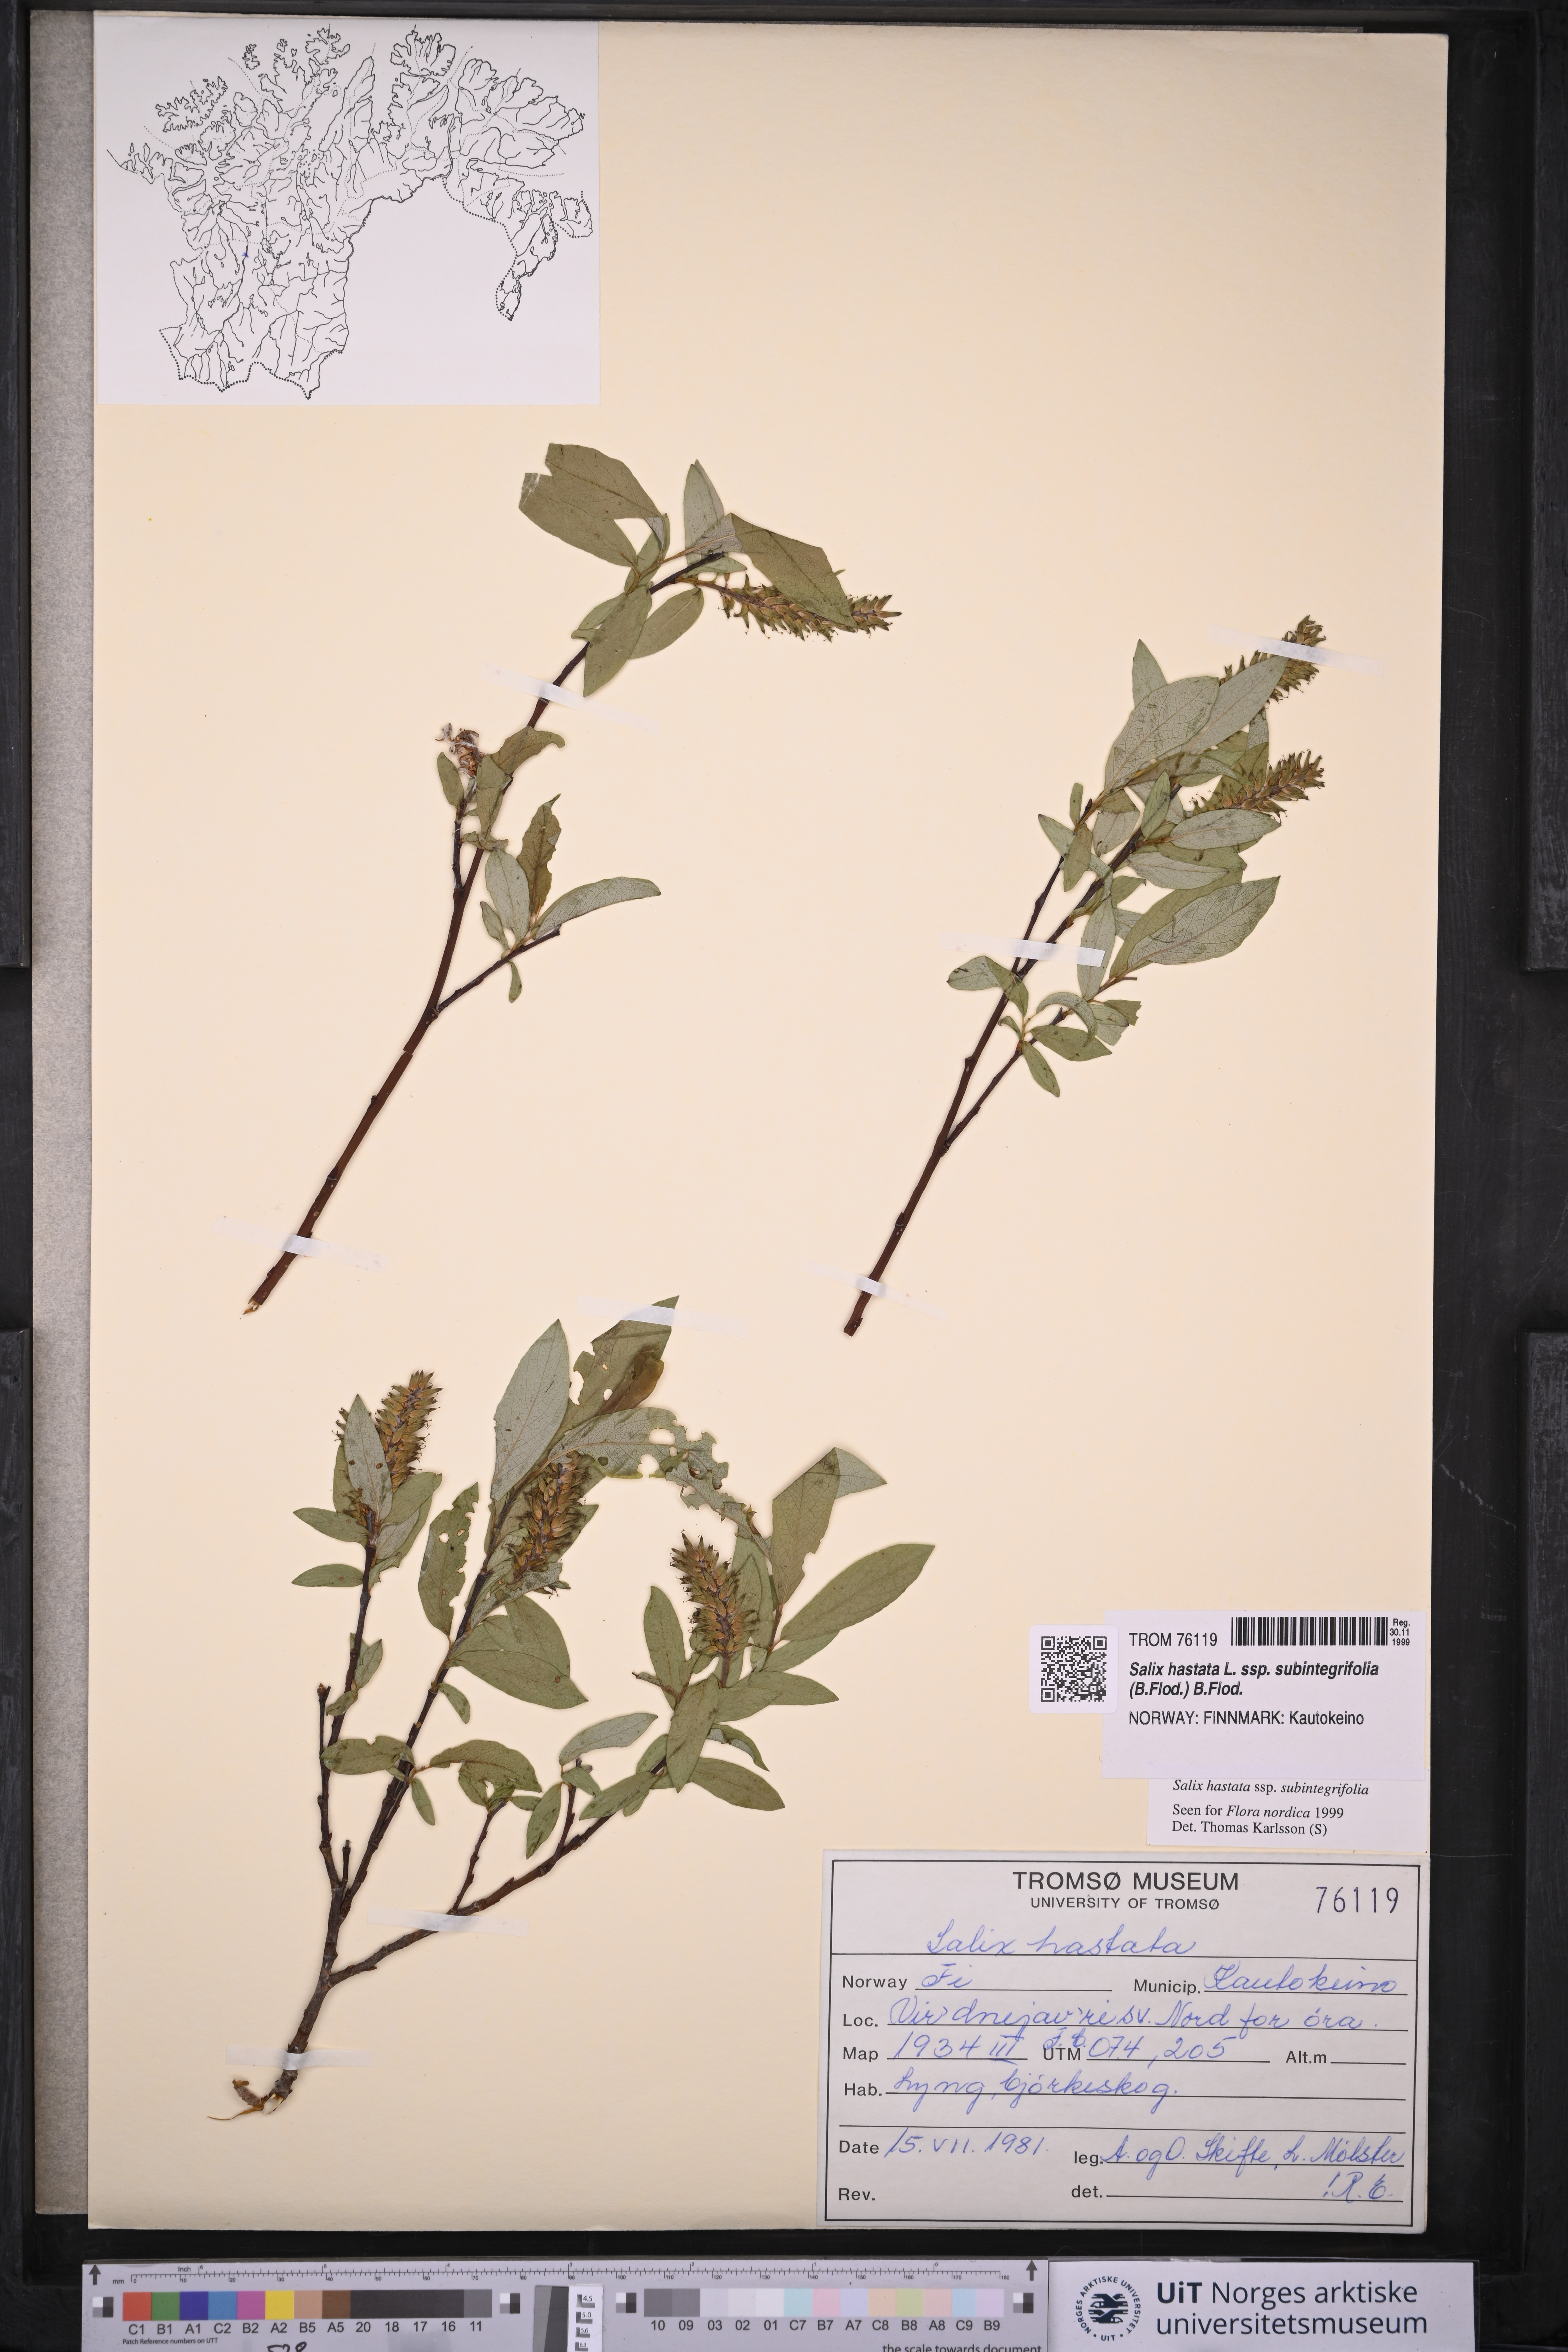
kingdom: Plantae
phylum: Tracheophyta
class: Magnoliopsida
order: Malpighiales
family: Salicaceae
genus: Salix
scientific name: Salix hastata
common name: Halberd willow
